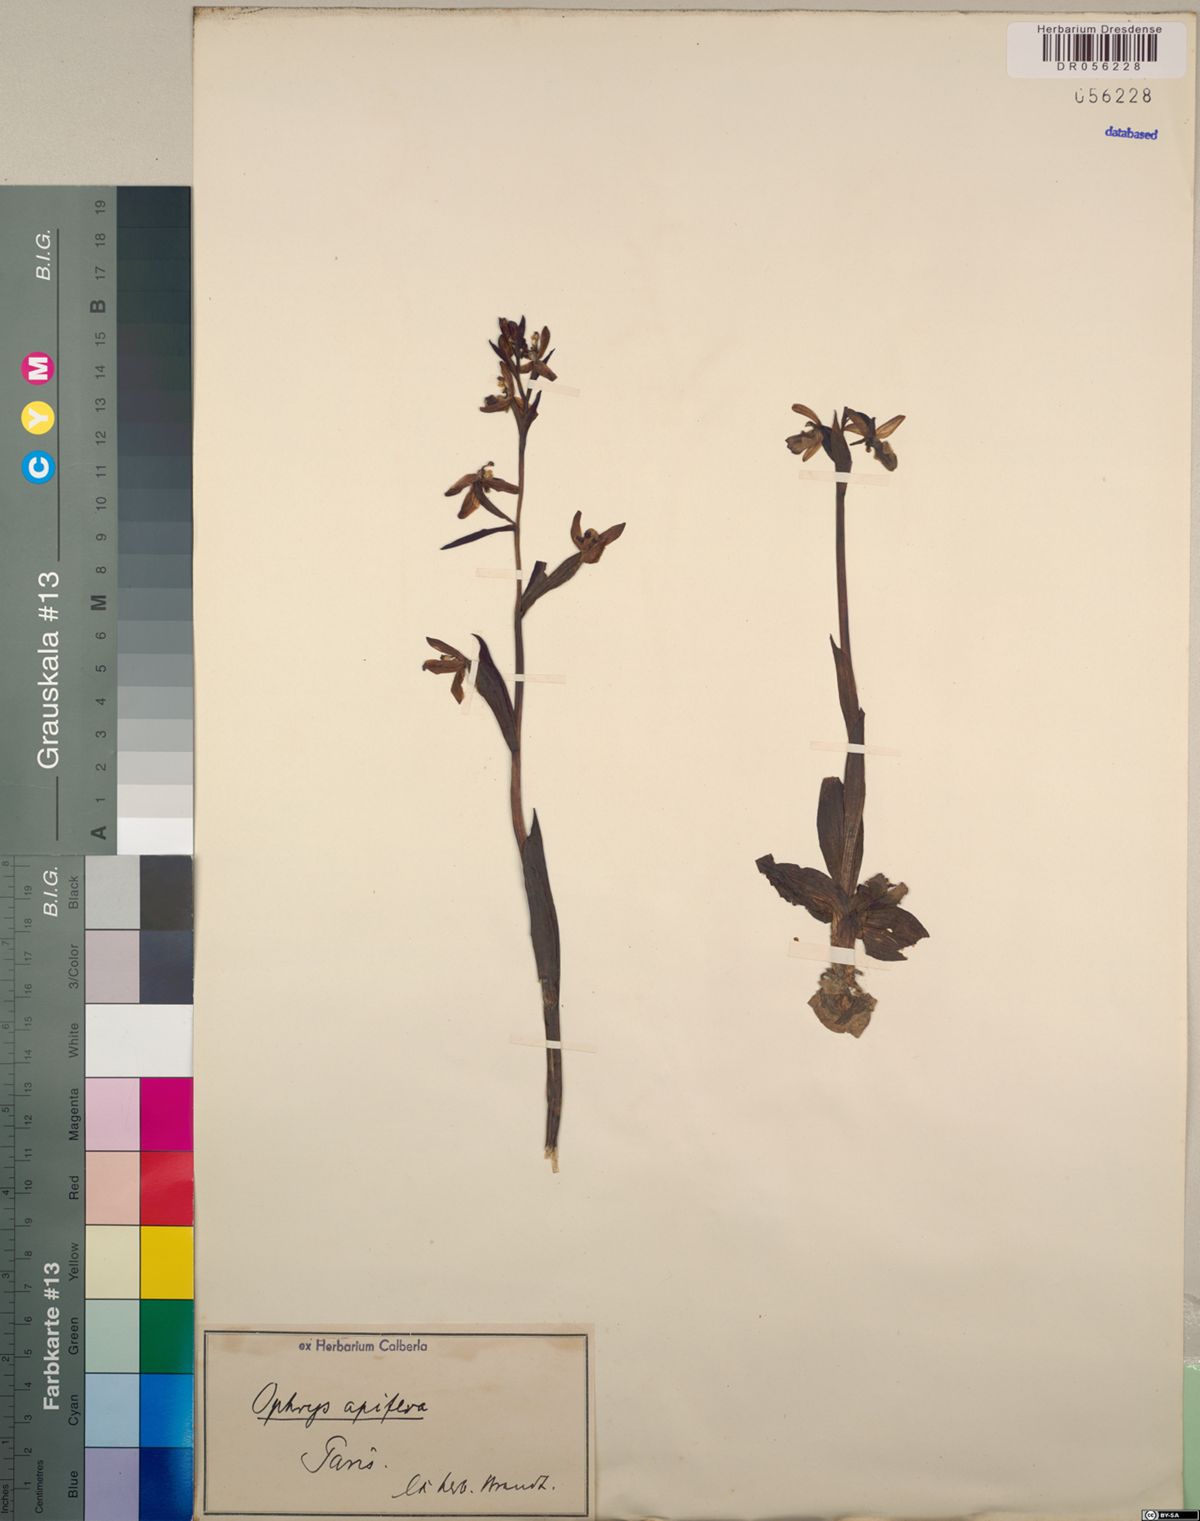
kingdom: Plantae
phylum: Tracheophyta
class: Liliopsida
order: Asparagales
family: Orchidaceae
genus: Ophrys
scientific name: Ophrys apifera
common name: Bee orchid
